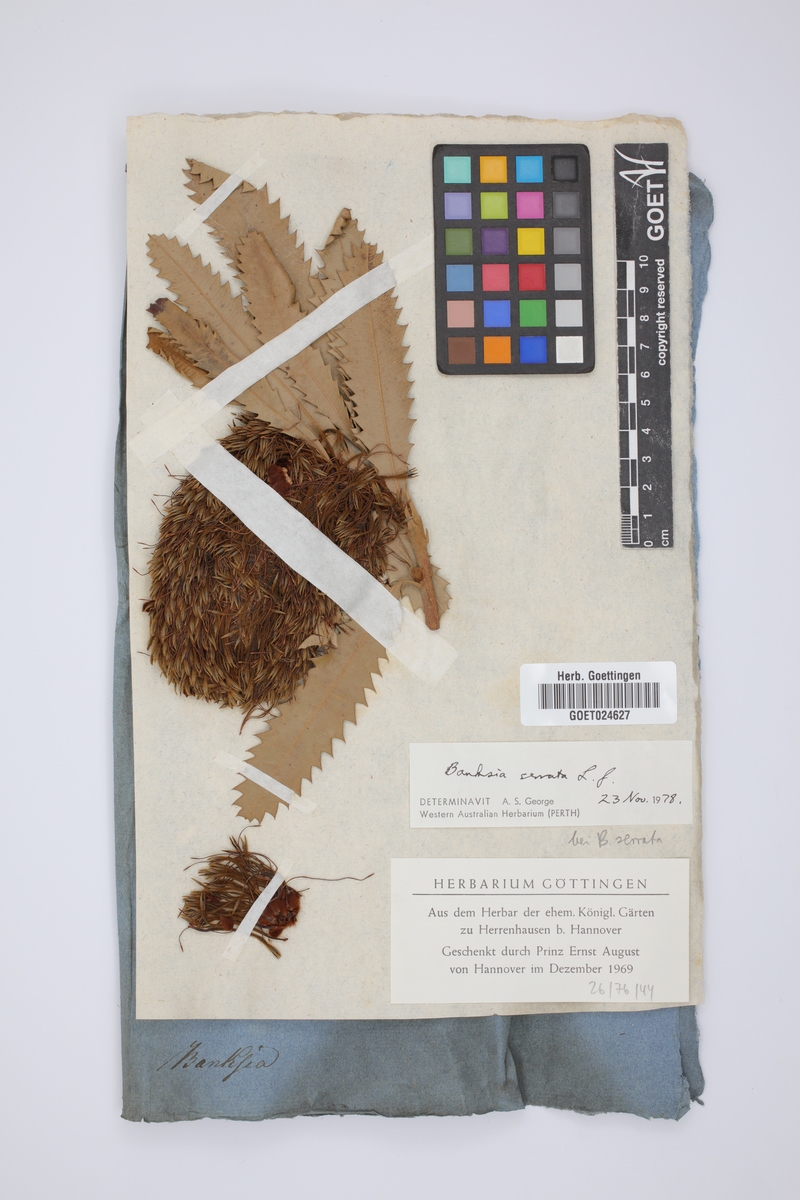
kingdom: Plantae
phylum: Tracheophyta
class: Magnoliopsida
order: Proteales
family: Proteaceae
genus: Banksia
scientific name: Banksia serrata
